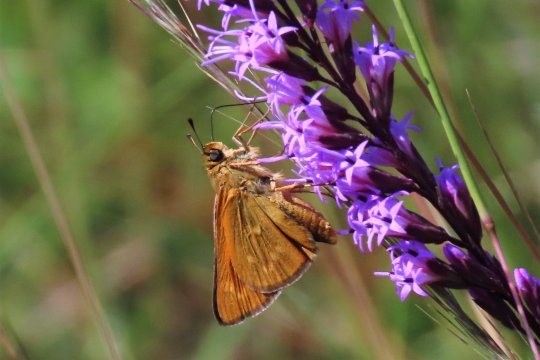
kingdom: Animalia
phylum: Arthropoda
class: Insecta
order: Lepidoptera
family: Hesperiidae
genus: Hesperia
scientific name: Hesperia meskei
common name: Meske's Skipper
